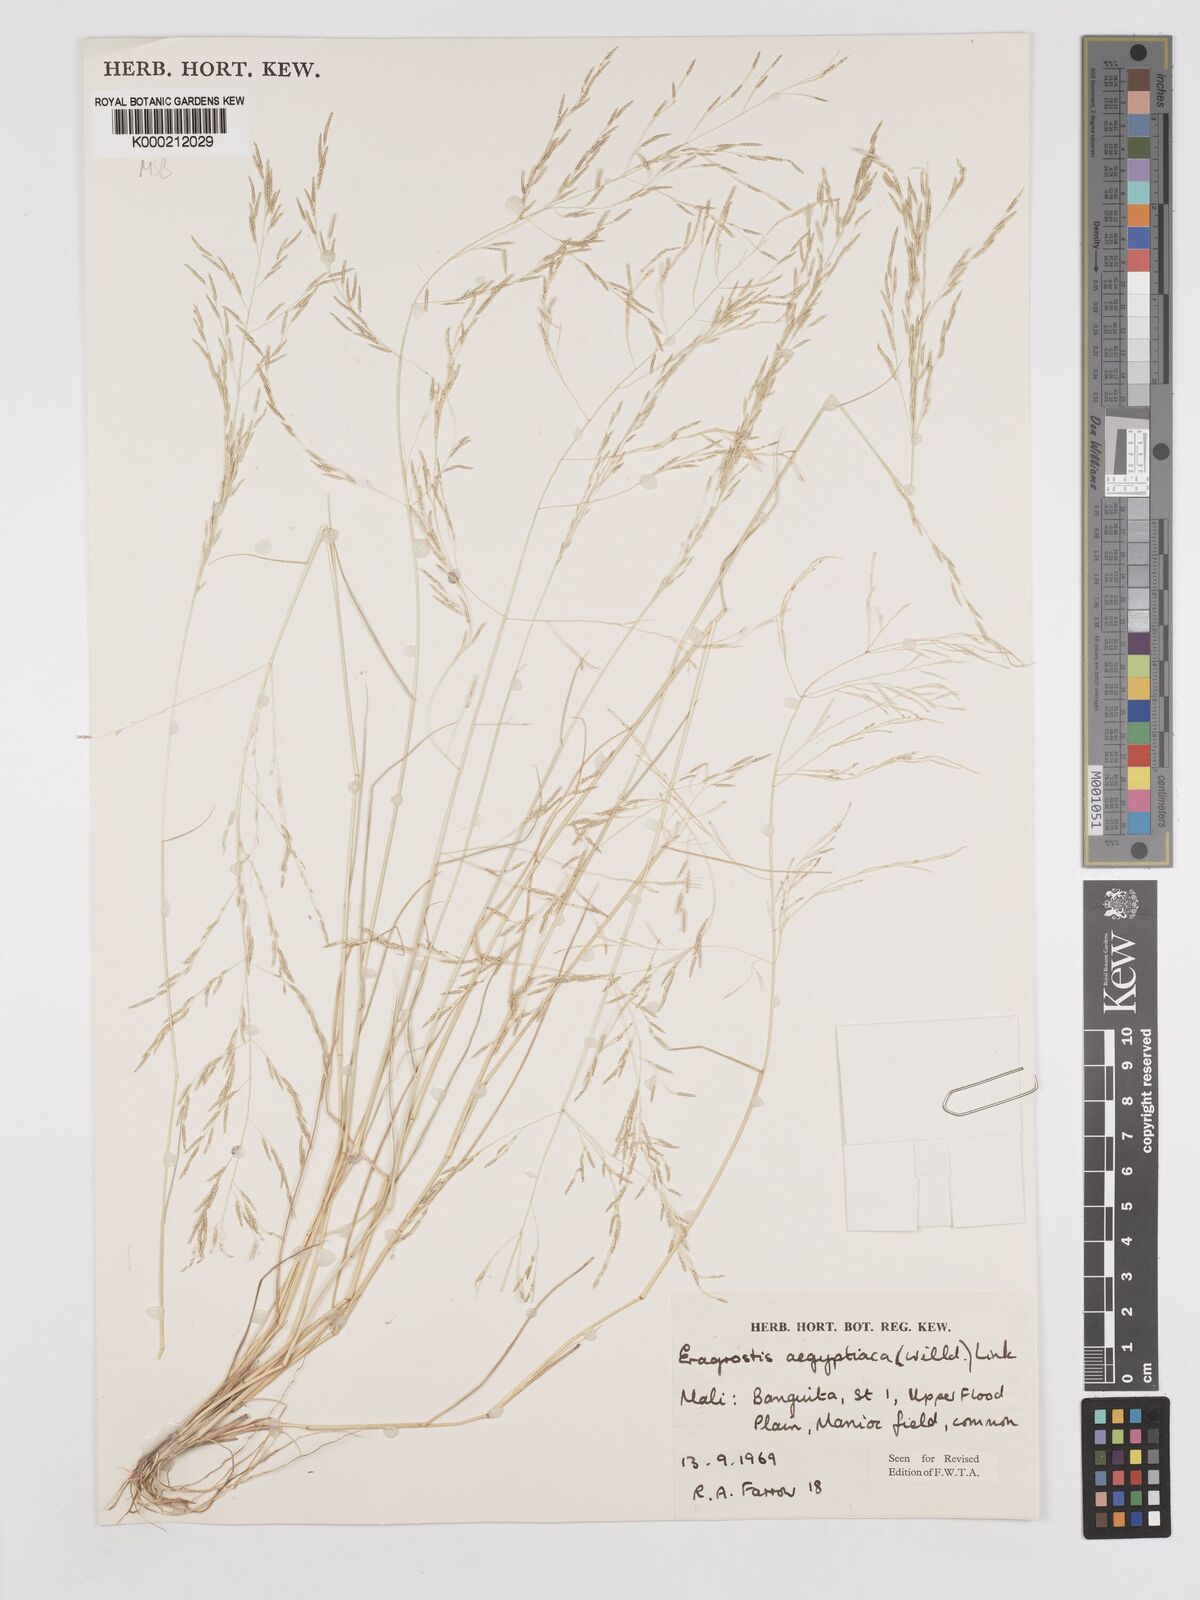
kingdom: Plantae
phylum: Tracheophyta
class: Liliopsida
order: Poales
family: Poaceae
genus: Eragrostis
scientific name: Eragrostis aegyptiaca
